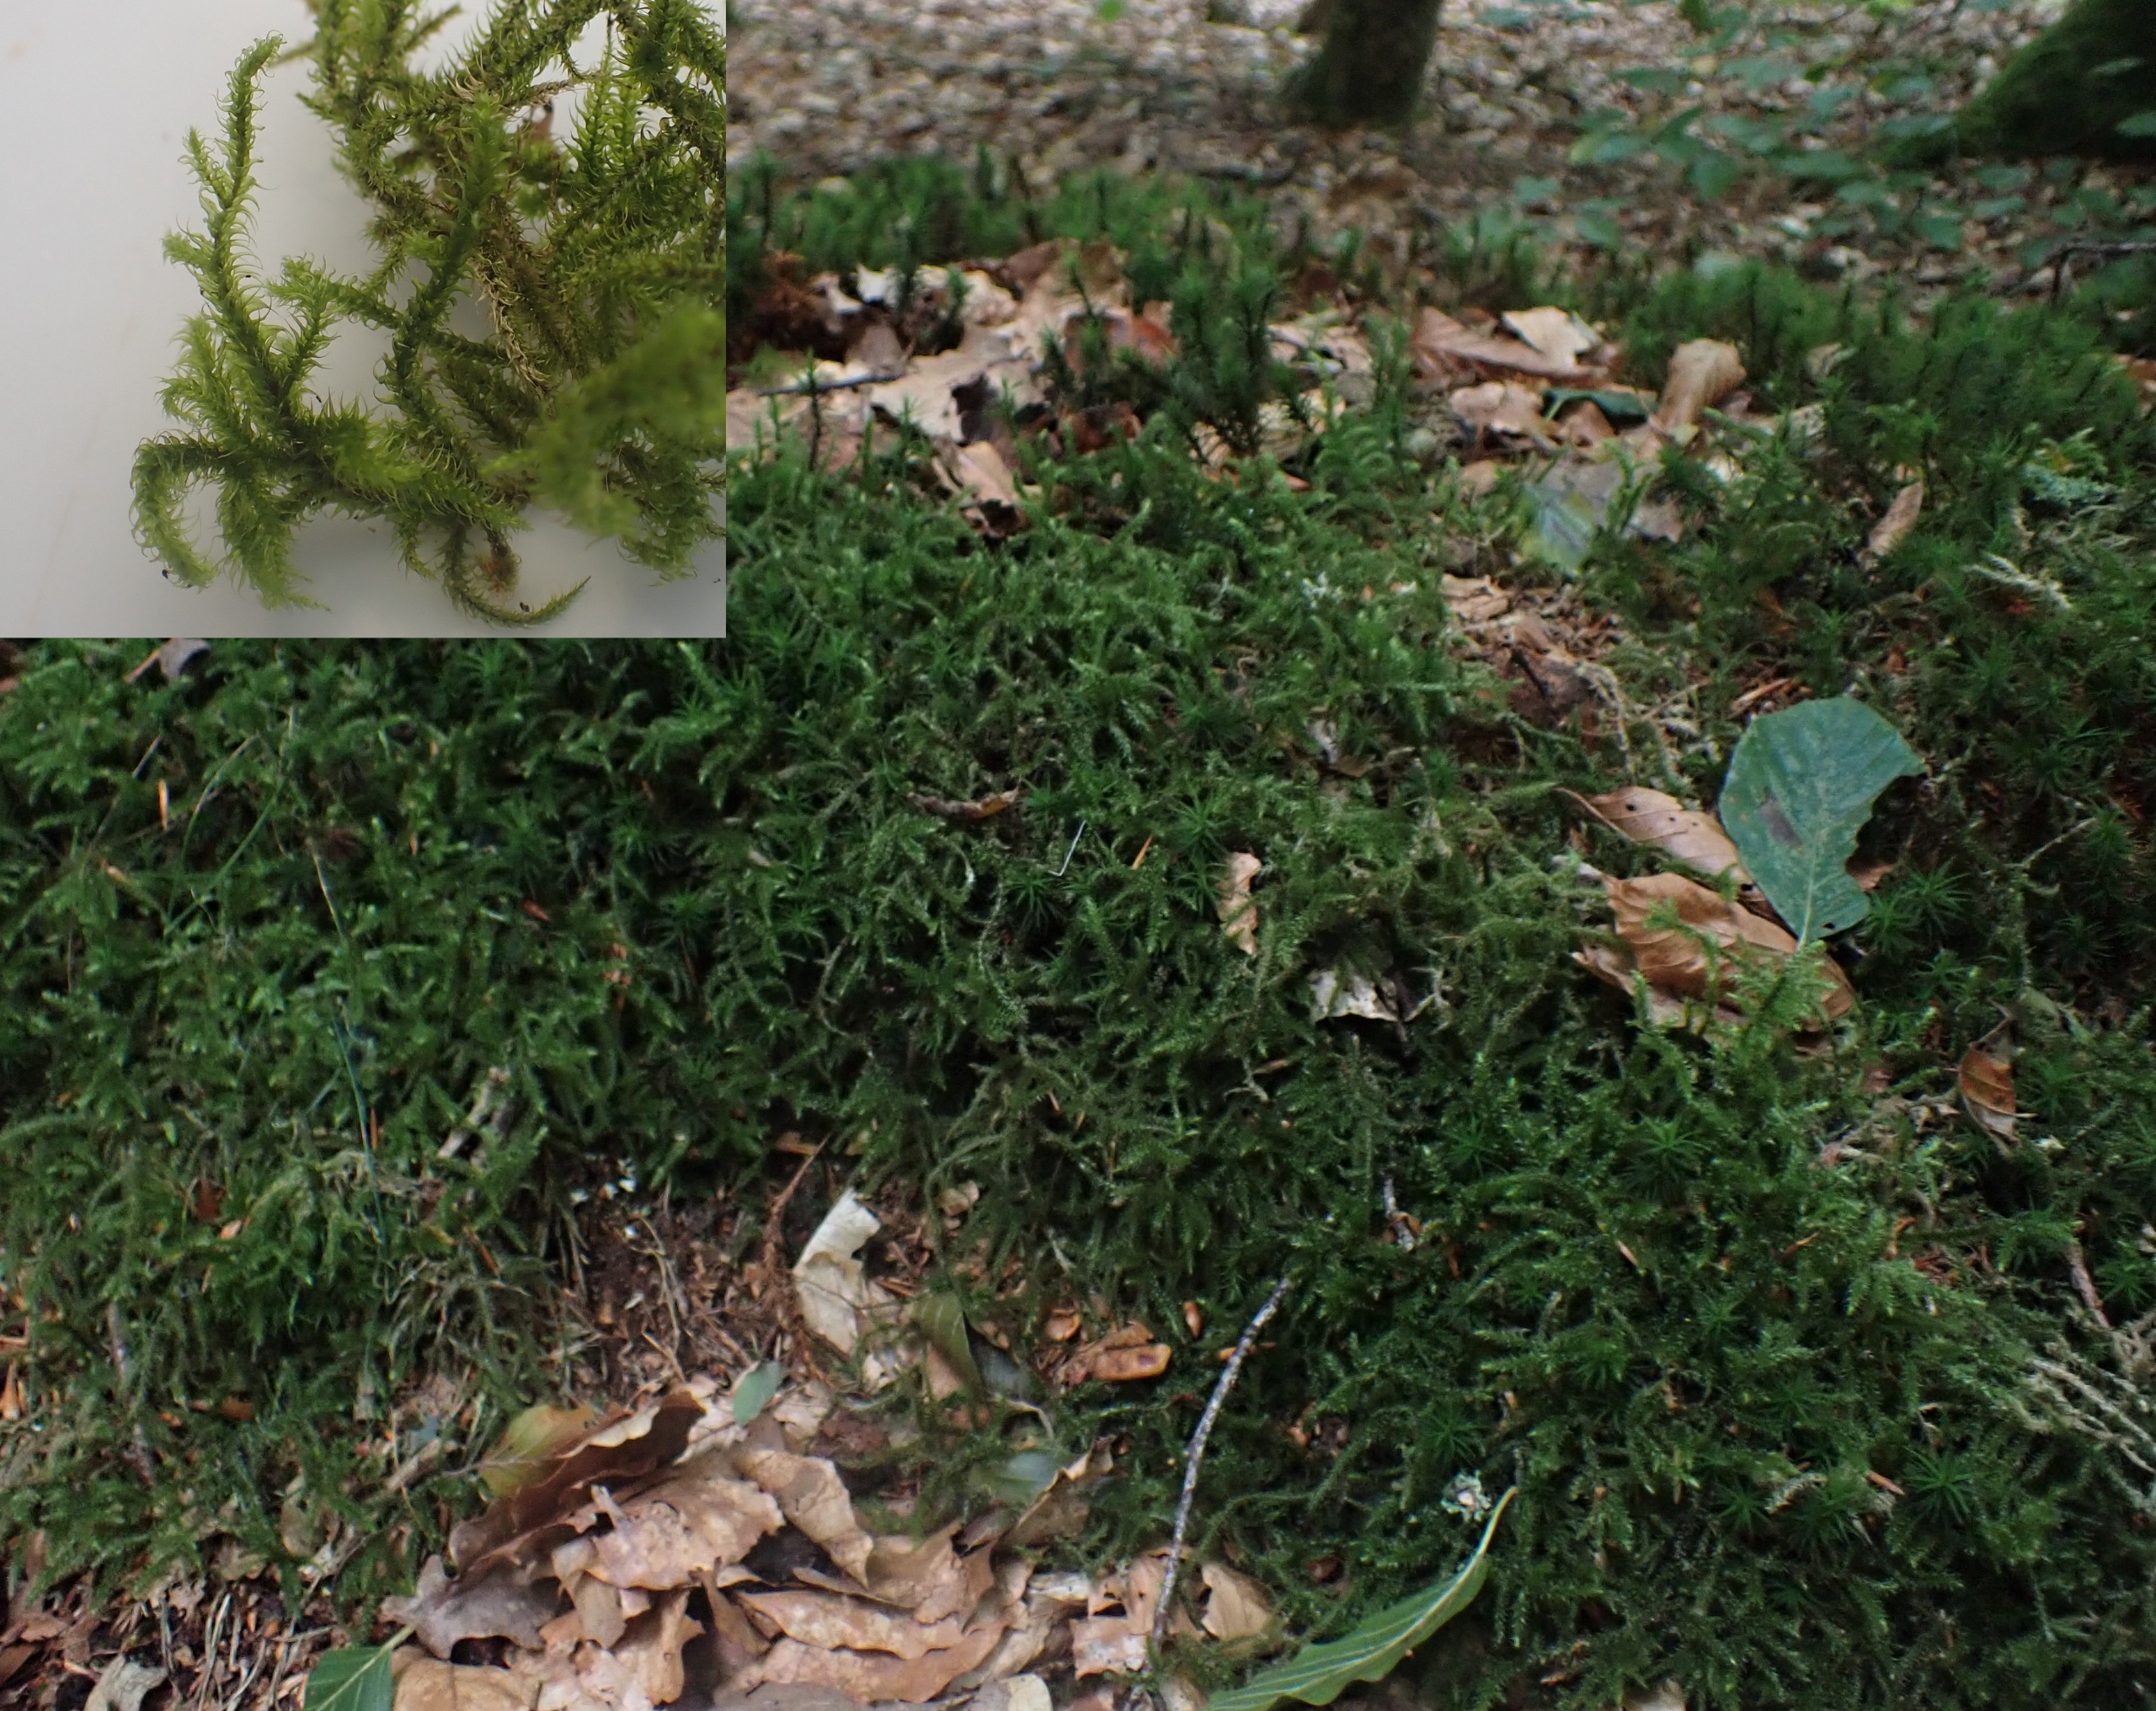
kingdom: Plantae
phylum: Bryophyta
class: Bryopsida
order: Hypnales
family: Hylocomiaceae
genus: Rhytidiadelphus
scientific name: Rhytidiadelphus loreus
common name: Ulvefod-kransemos
